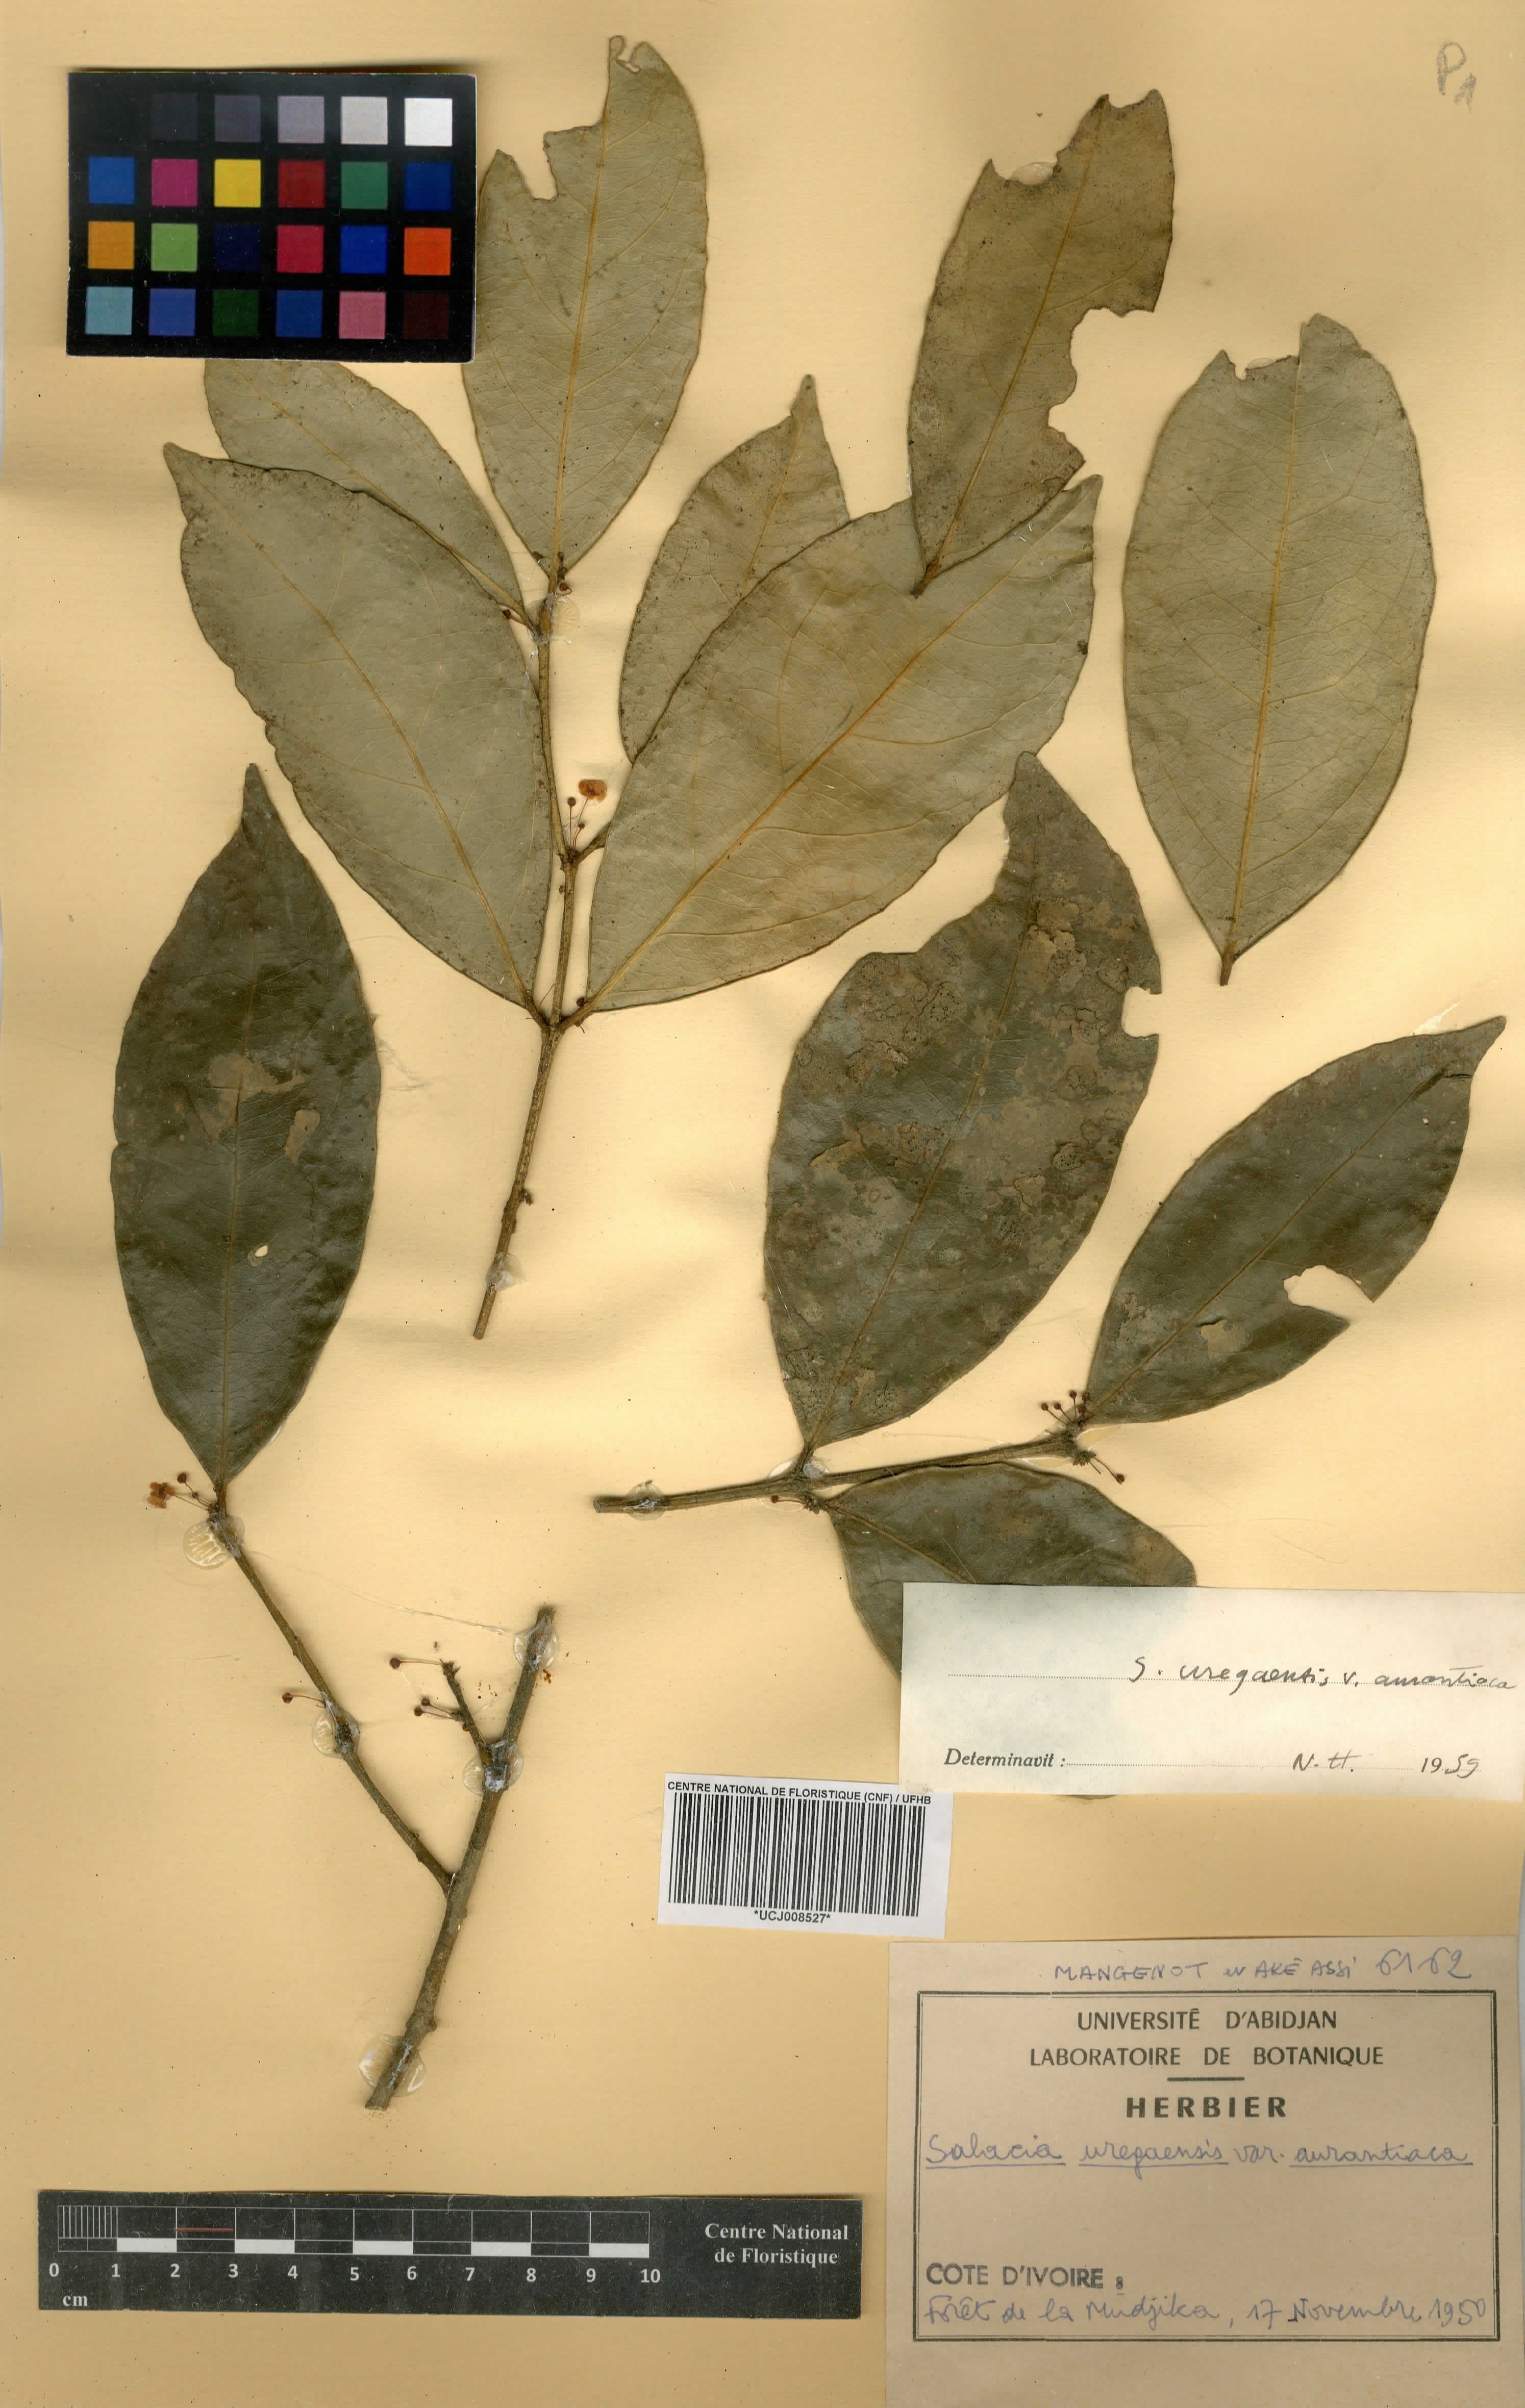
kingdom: Plantae
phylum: Tracheophyta
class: Magnoliopsida
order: Celastrales
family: Celastraceae
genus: Salacia
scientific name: Salacia lehmbachii
